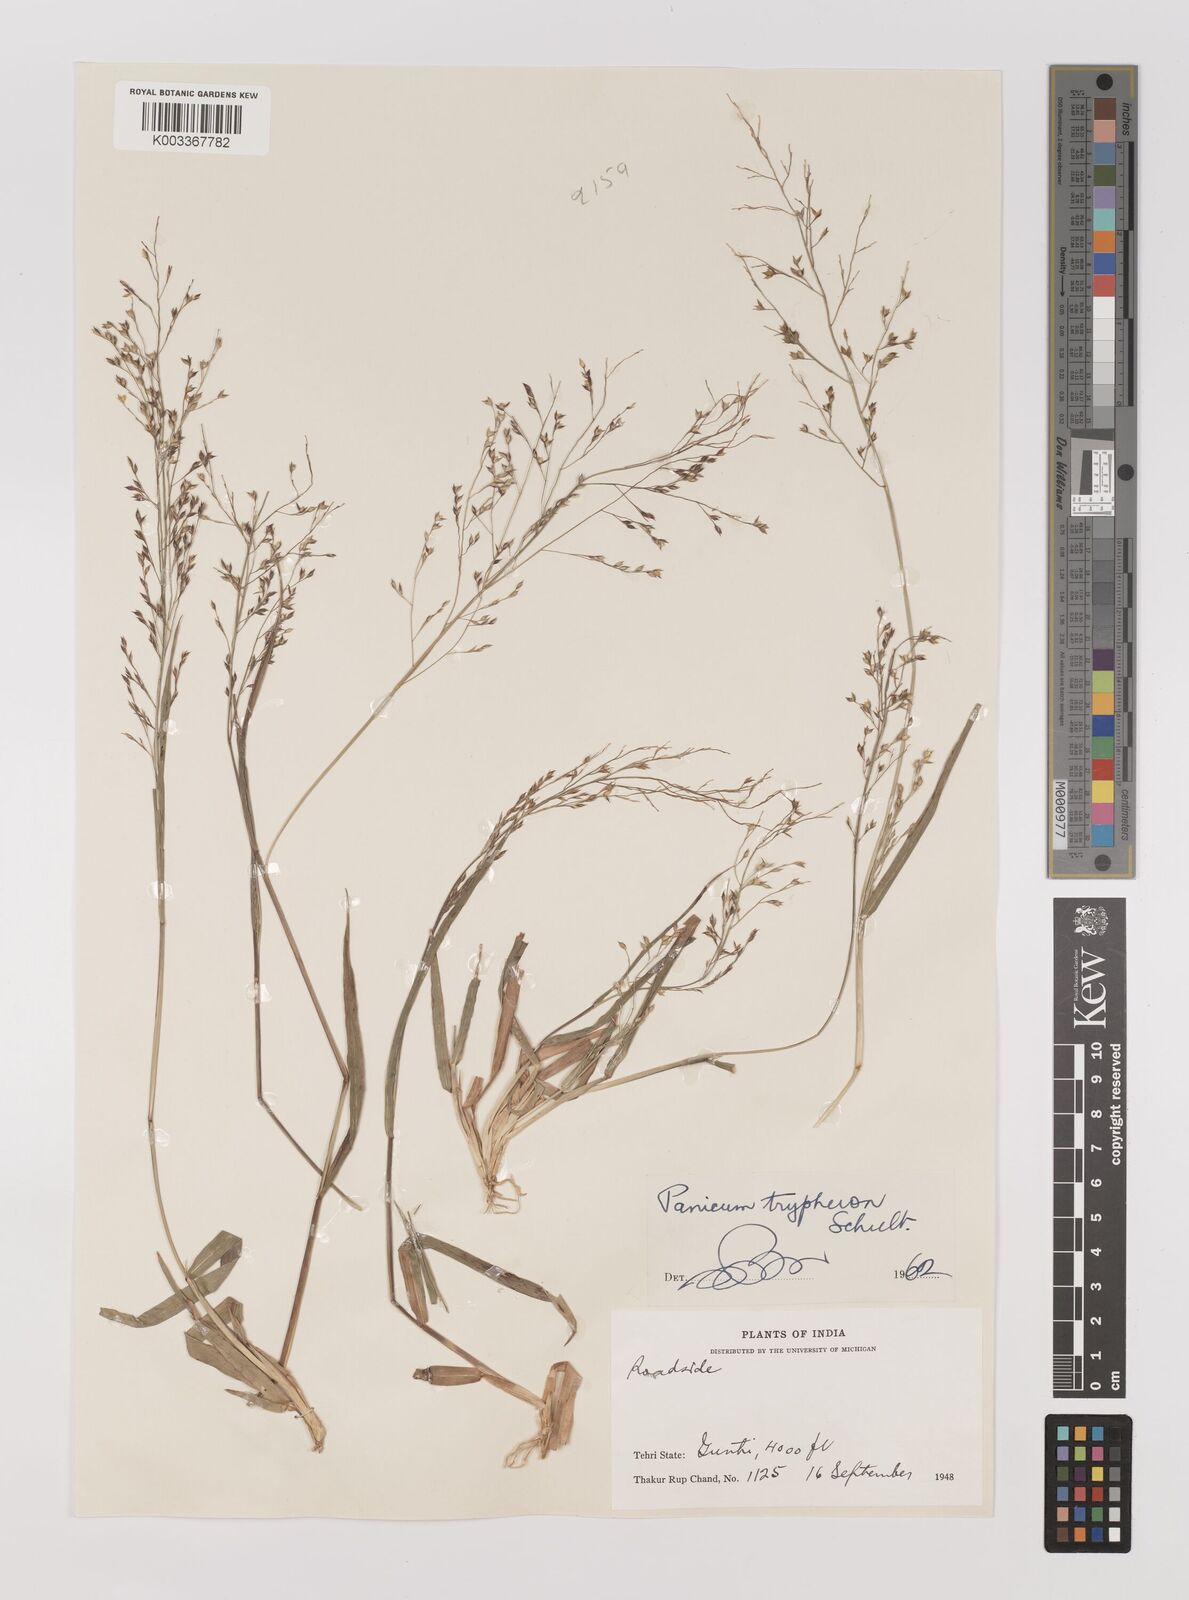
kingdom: Plantae
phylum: Tracheophyta
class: Liliopsida
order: Poales
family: Poaceae
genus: Panicum
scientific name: Panicum curviflorum
